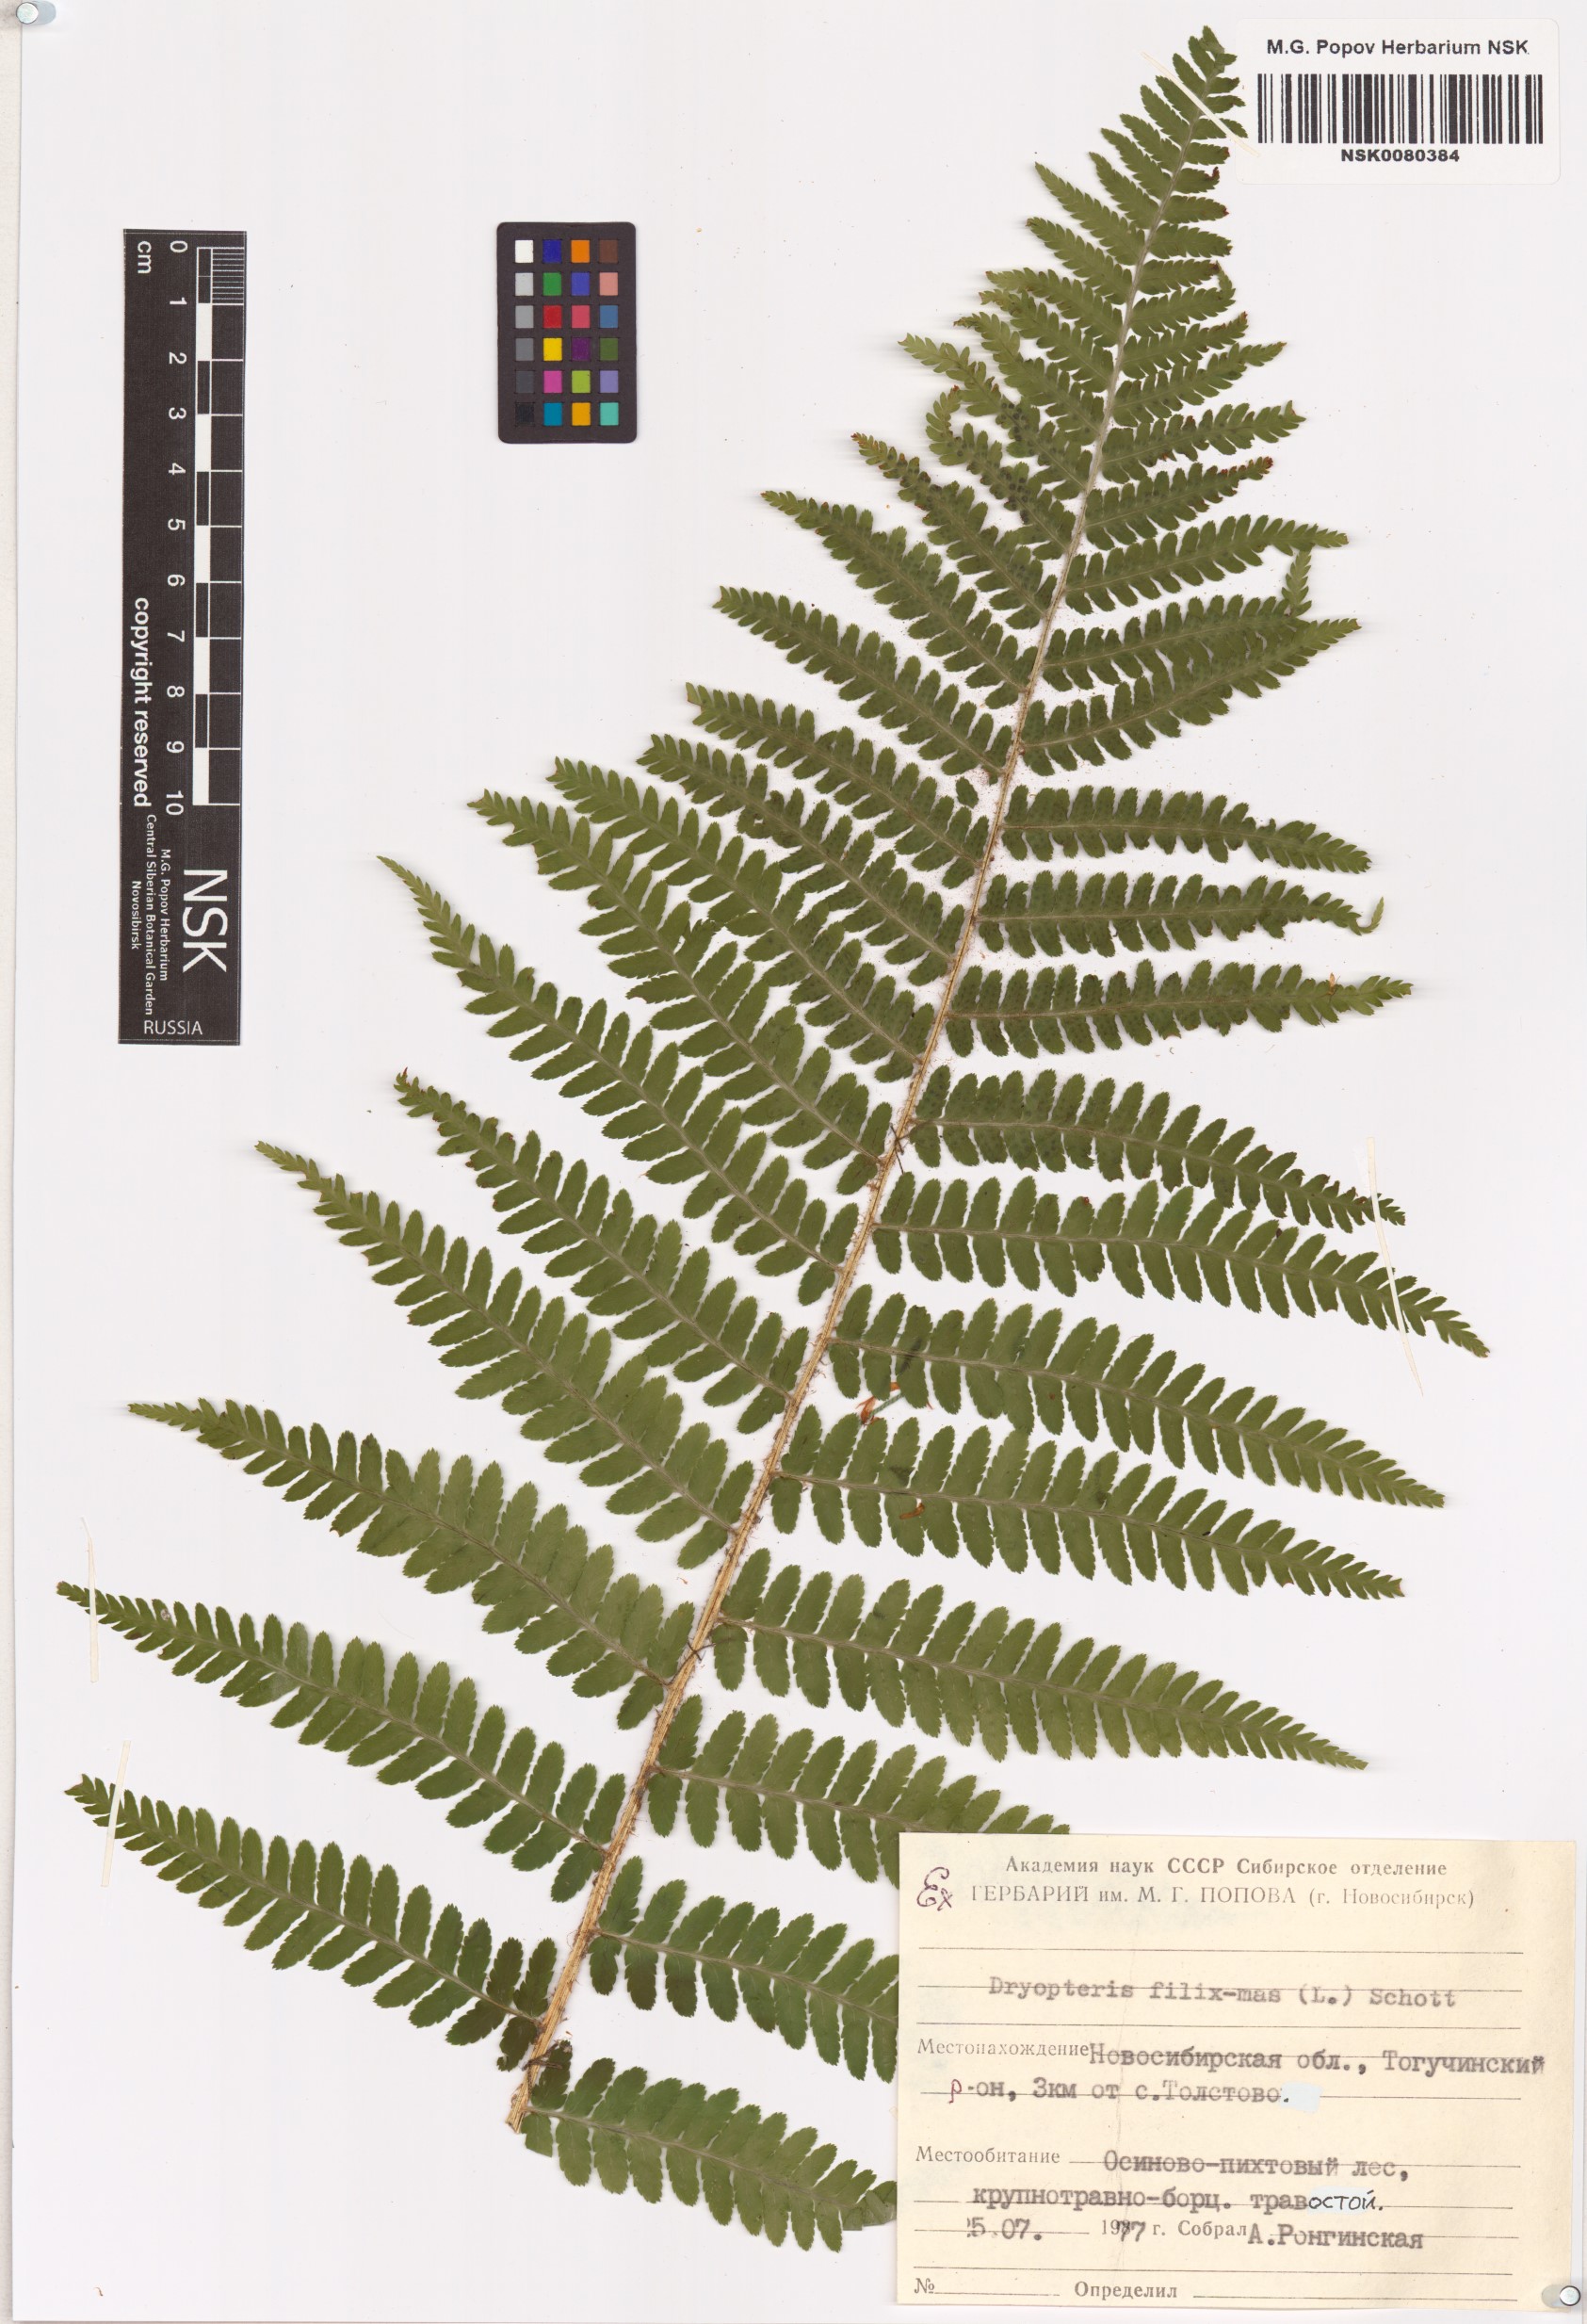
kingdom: Plantae
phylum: Tracheophyta
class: Polypodiopsida
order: Polypodiales
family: Dryopteridaceae
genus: Dryopteris
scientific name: Dryopteris filix-mas
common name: Male fern
